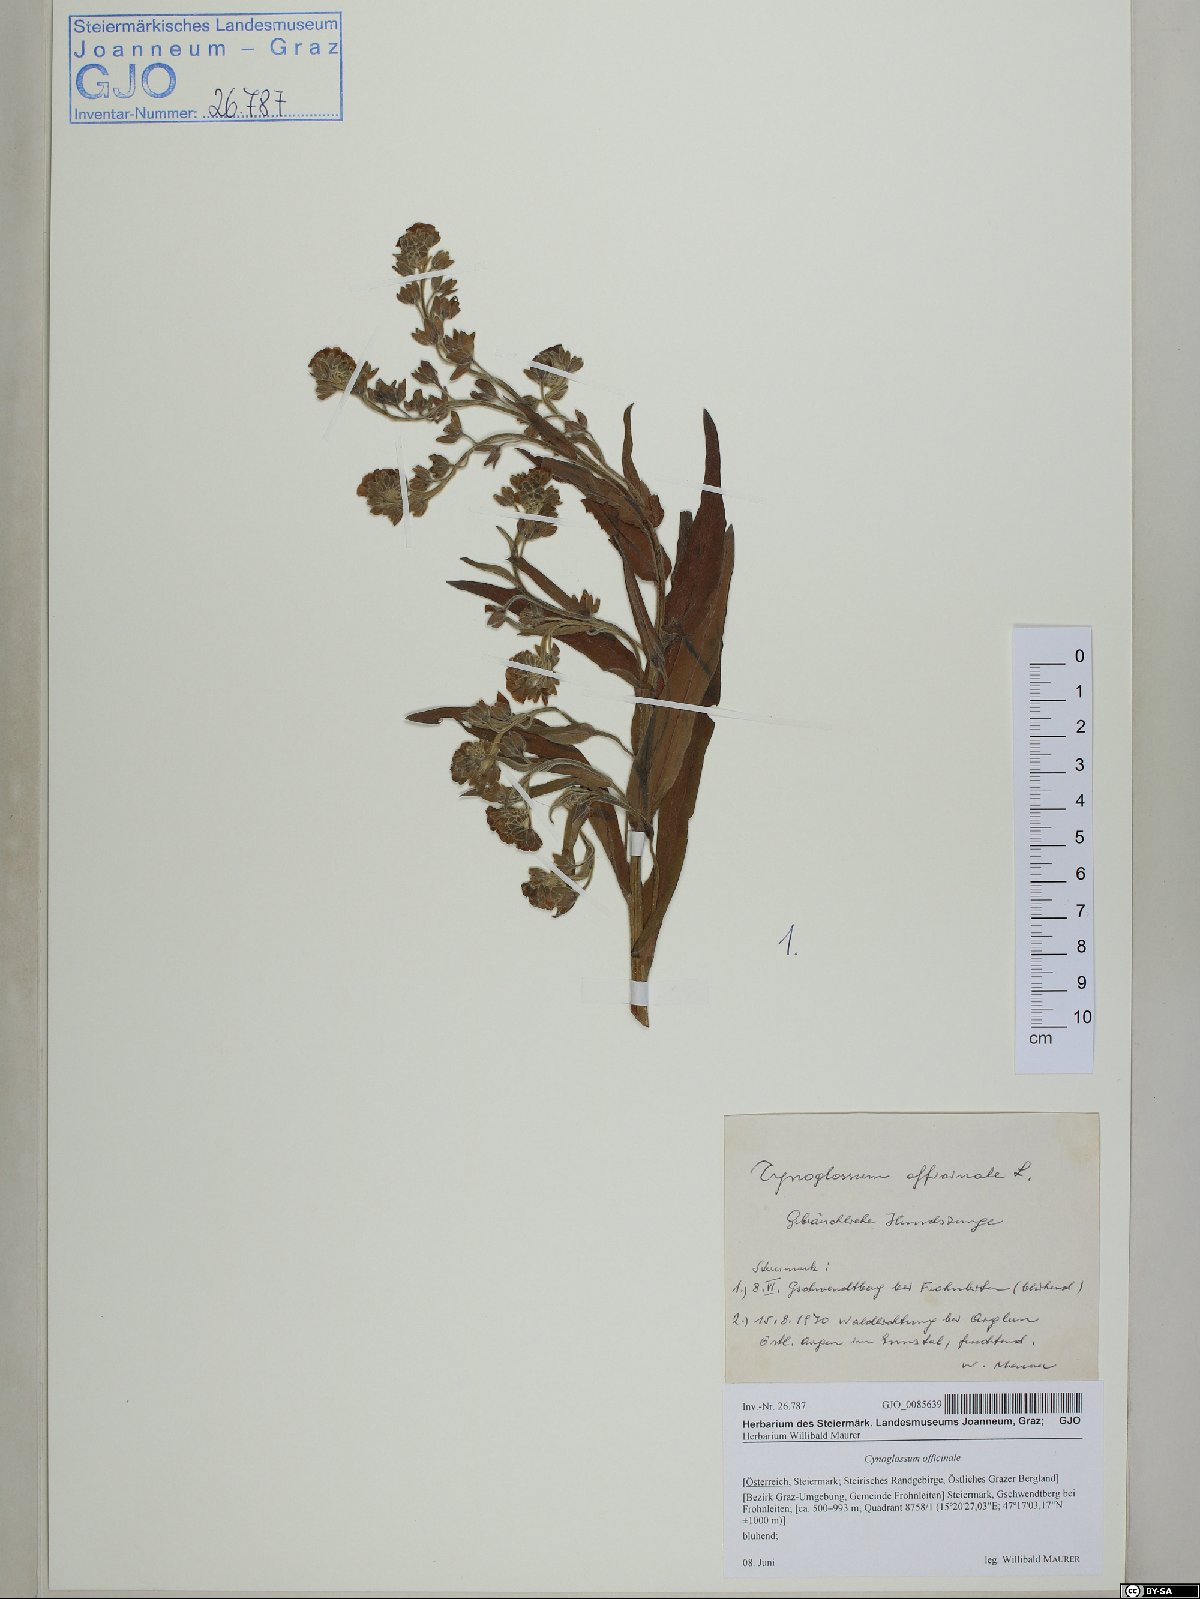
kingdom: Plantae
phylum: Tracheophyta
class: Magnoliopsida
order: Boraginales
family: Boraginaceae
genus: Cynoglossum
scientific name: Cynoglossum officinale
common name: Hound's-tongue
